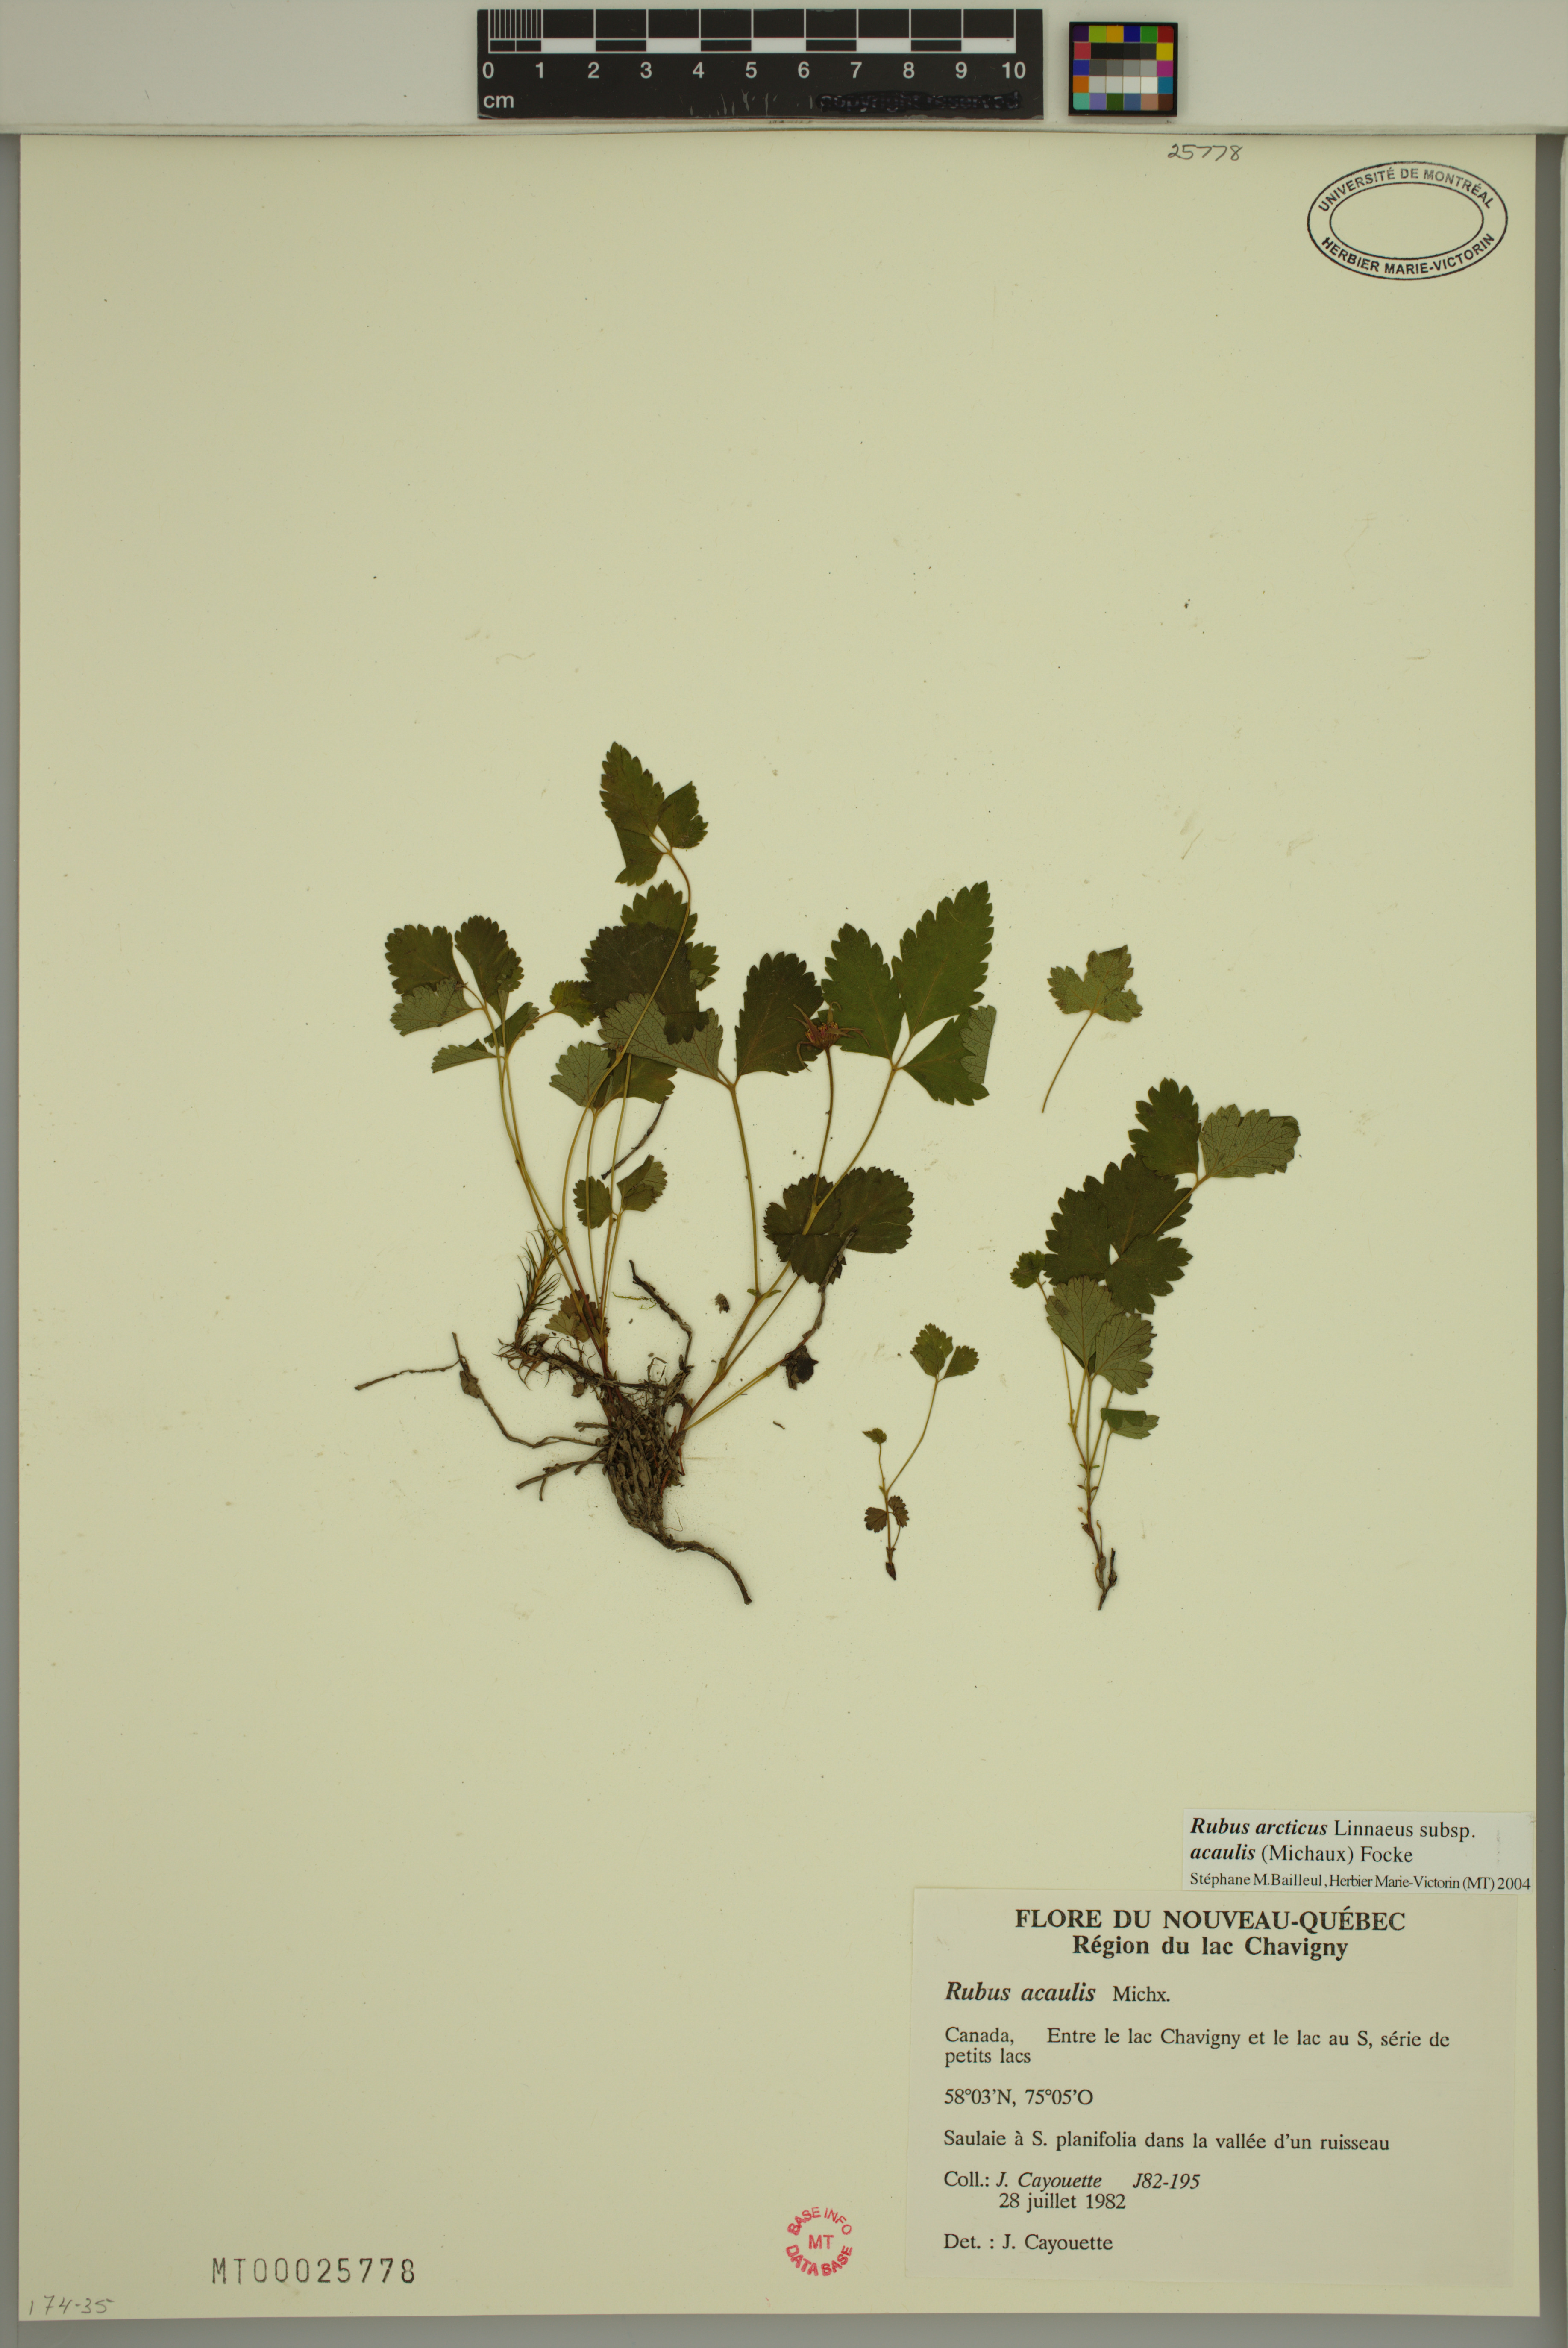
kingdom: Plantae
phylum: Tracheophyta
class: Magnoliopsida
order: Rosales
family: Rosaceae
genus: Rubus
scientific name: Rubus arcticus
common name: Arctic bramble
